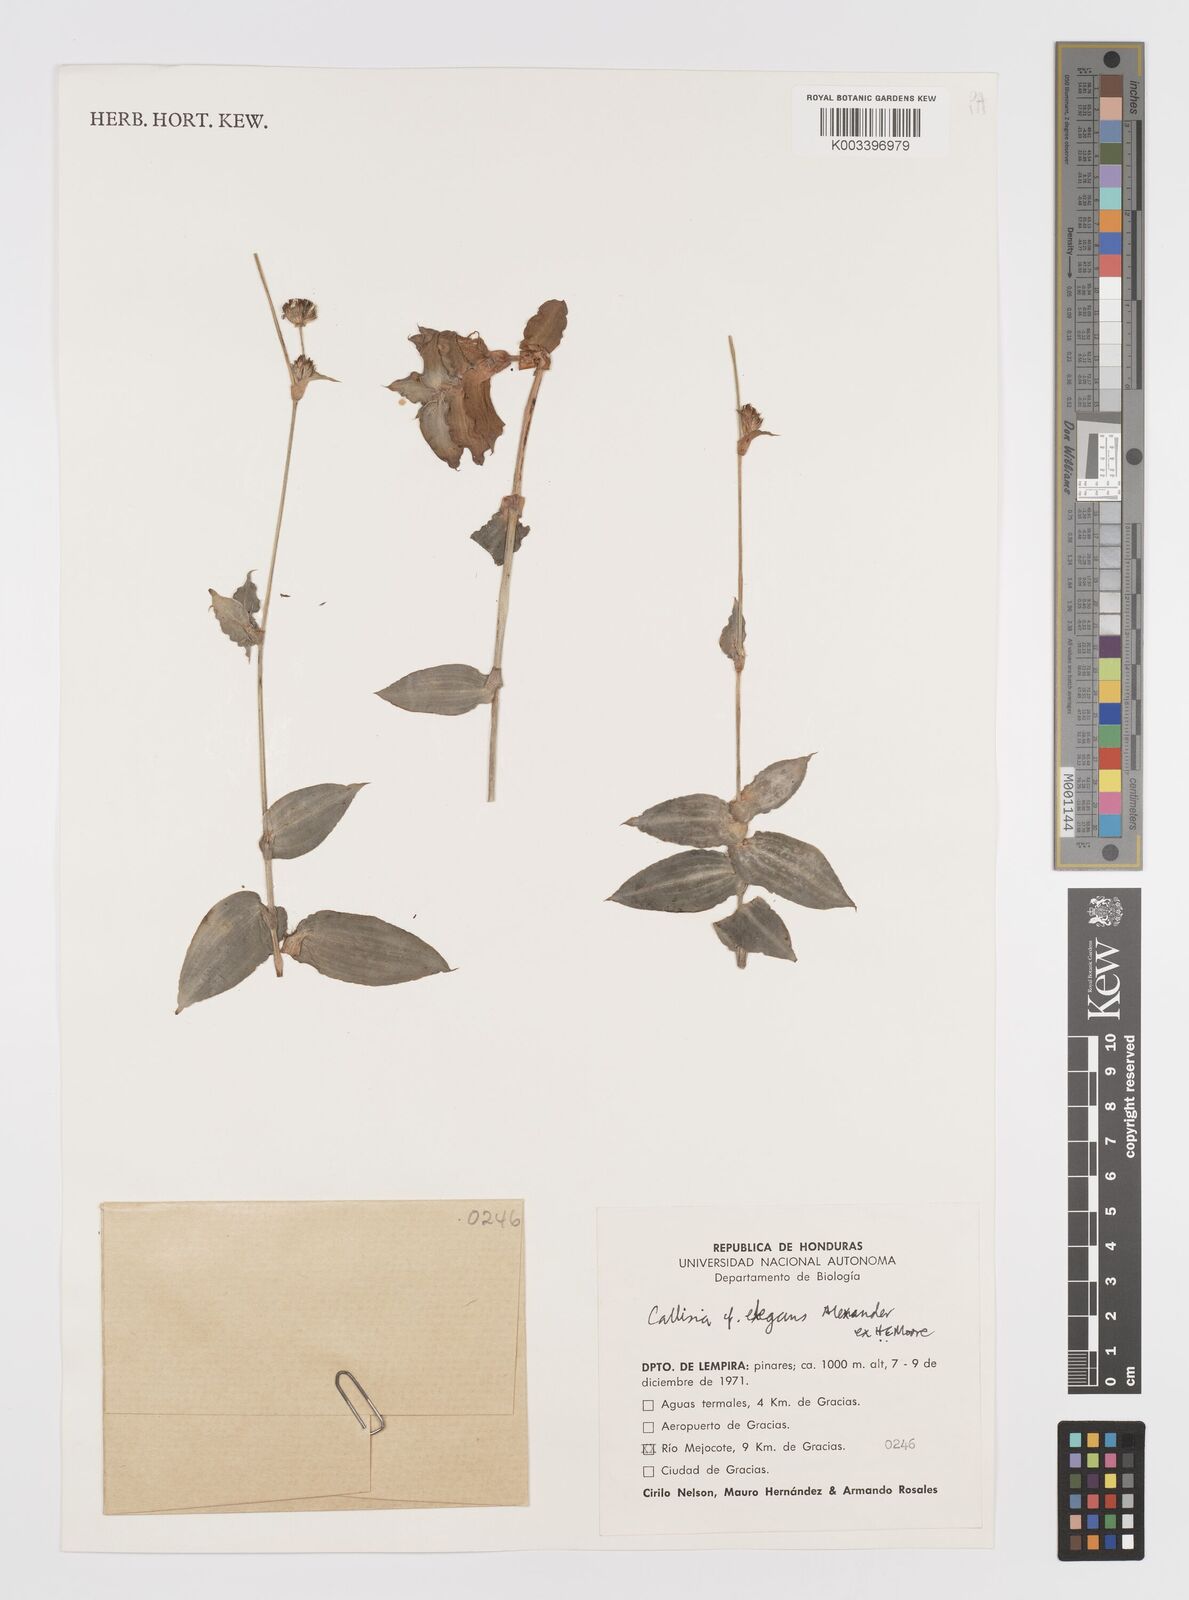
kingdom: Plantae
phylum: Tracheophyta
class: Liliopsida
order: Commelinales
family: Commelinaceae
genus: Callisia
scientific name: Callisia gentlei
